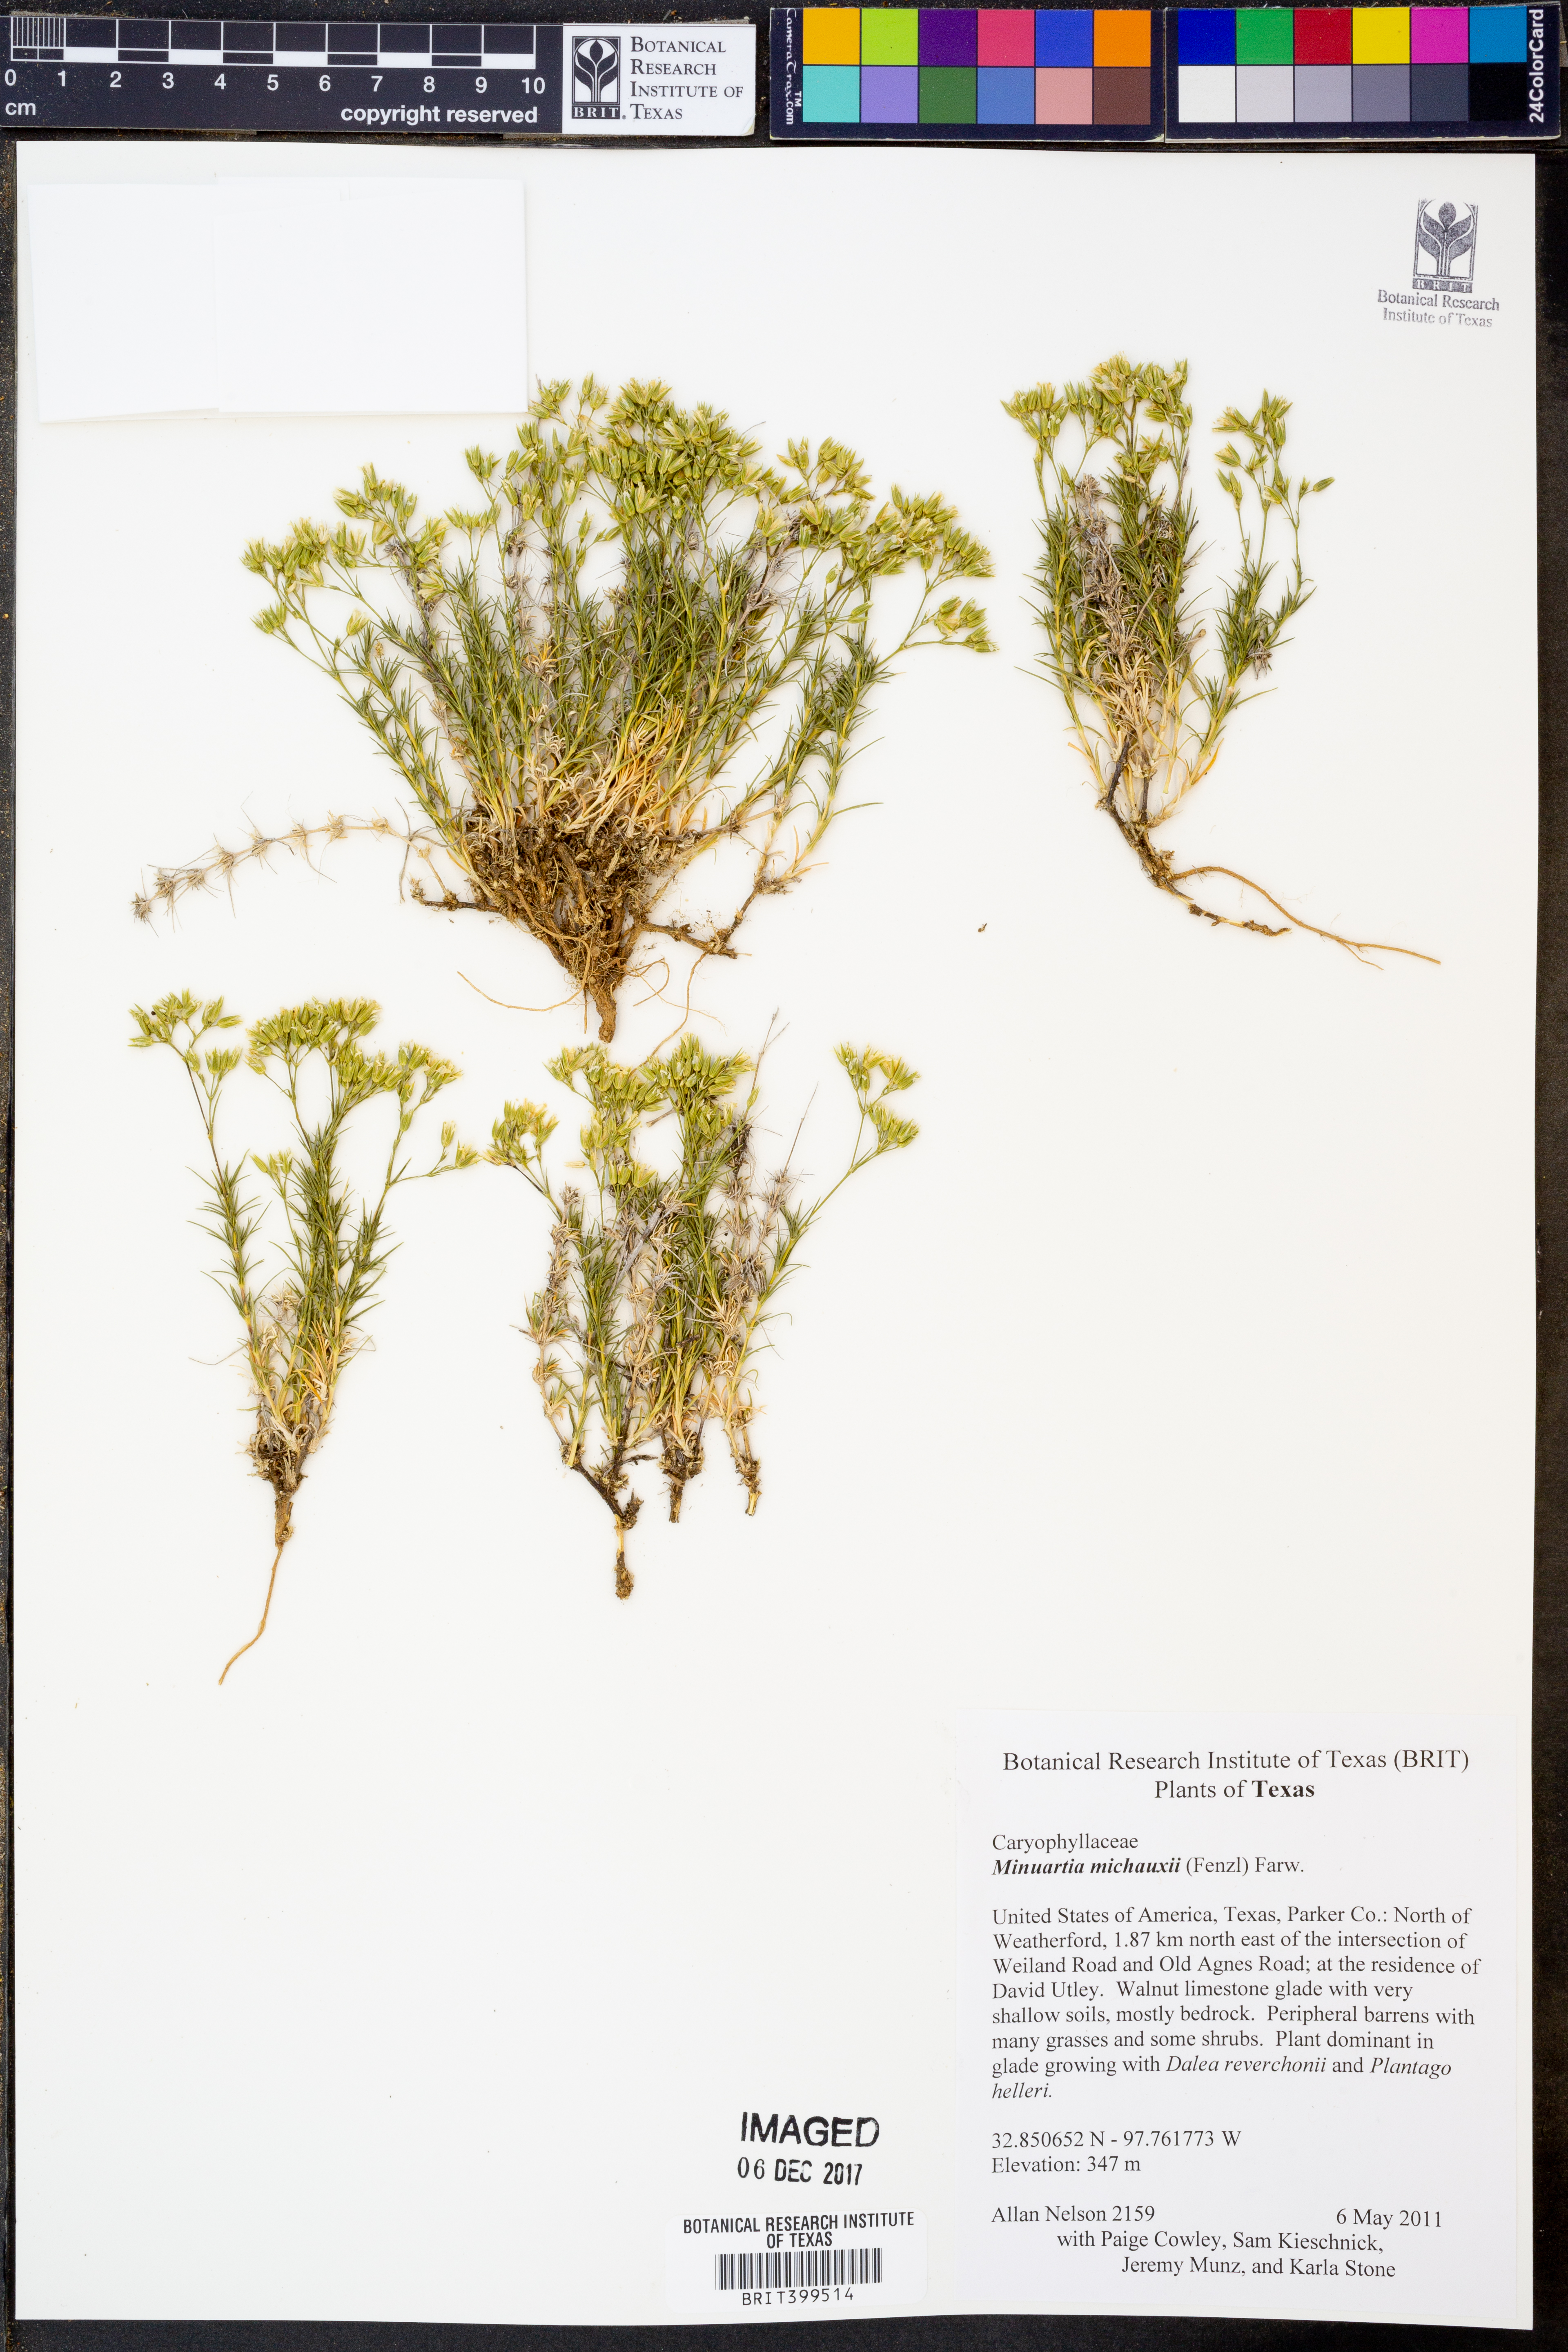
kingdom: Plantae
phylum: Tracheophyta
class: Magnoliopsida
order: Caryophyllales
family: Caryophyllaceae
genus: Sabulina
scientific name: Sabulina michauxii
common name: Michaux's stitchwort
